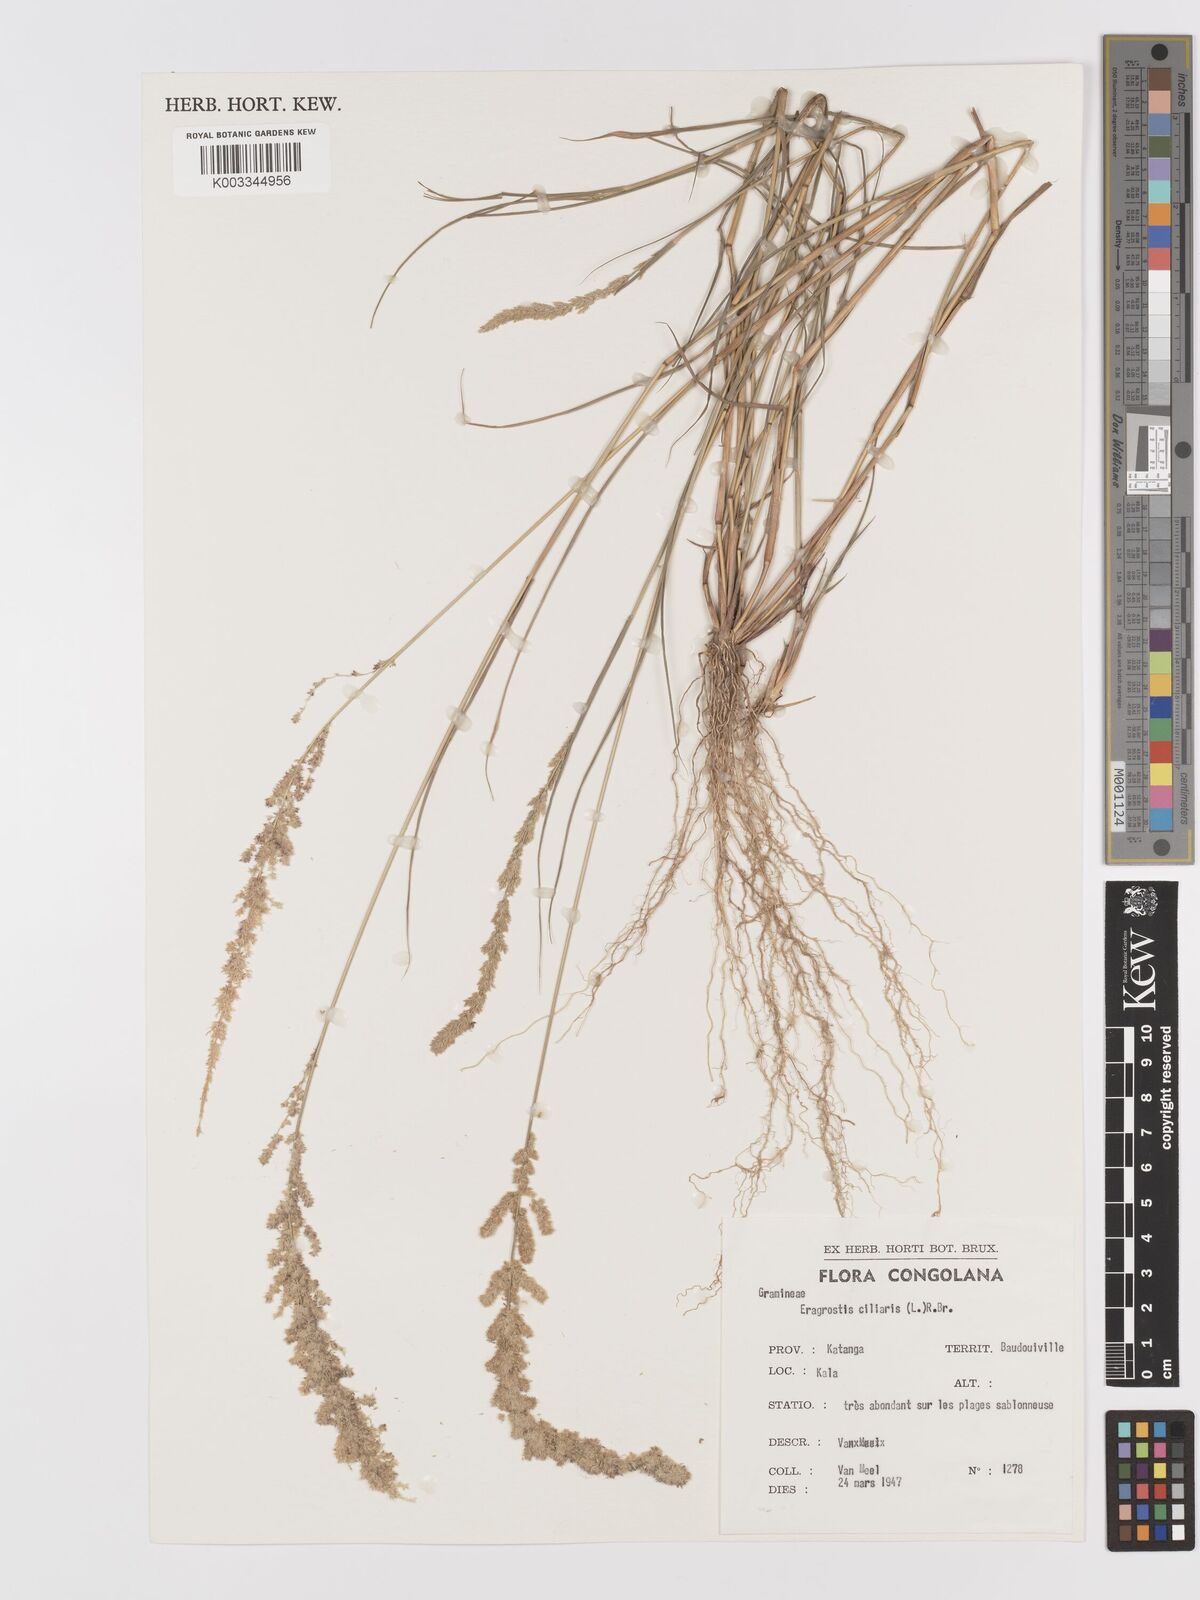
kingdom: Plantae
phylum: Tracheophyta
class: Liliopsida
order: Poales
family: Poaceae
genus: Eragrostis
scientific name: Eragrostis ciliaris
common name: Gophertail lovegrass
